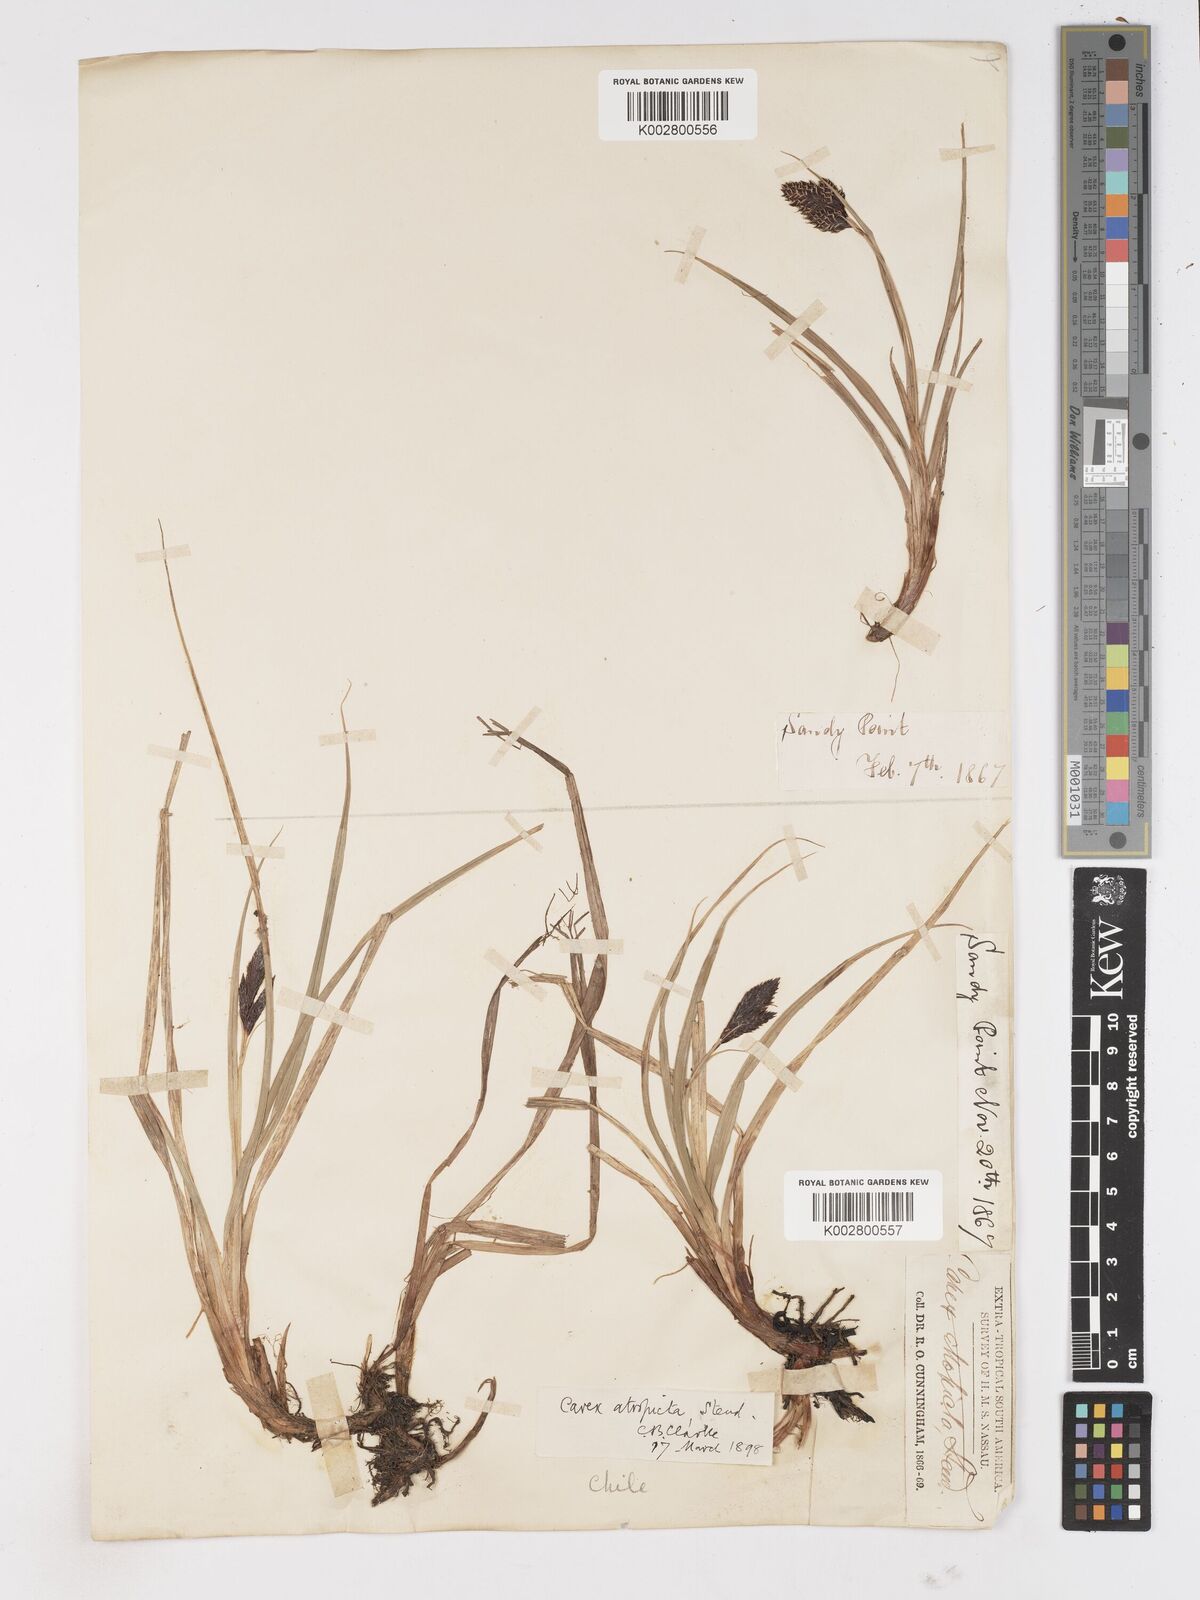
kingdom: Plantae
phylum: Tracheophyta
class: Liliopsida
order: Poales
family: Cyperaceae
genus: Carex
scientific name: Carex atropicta
